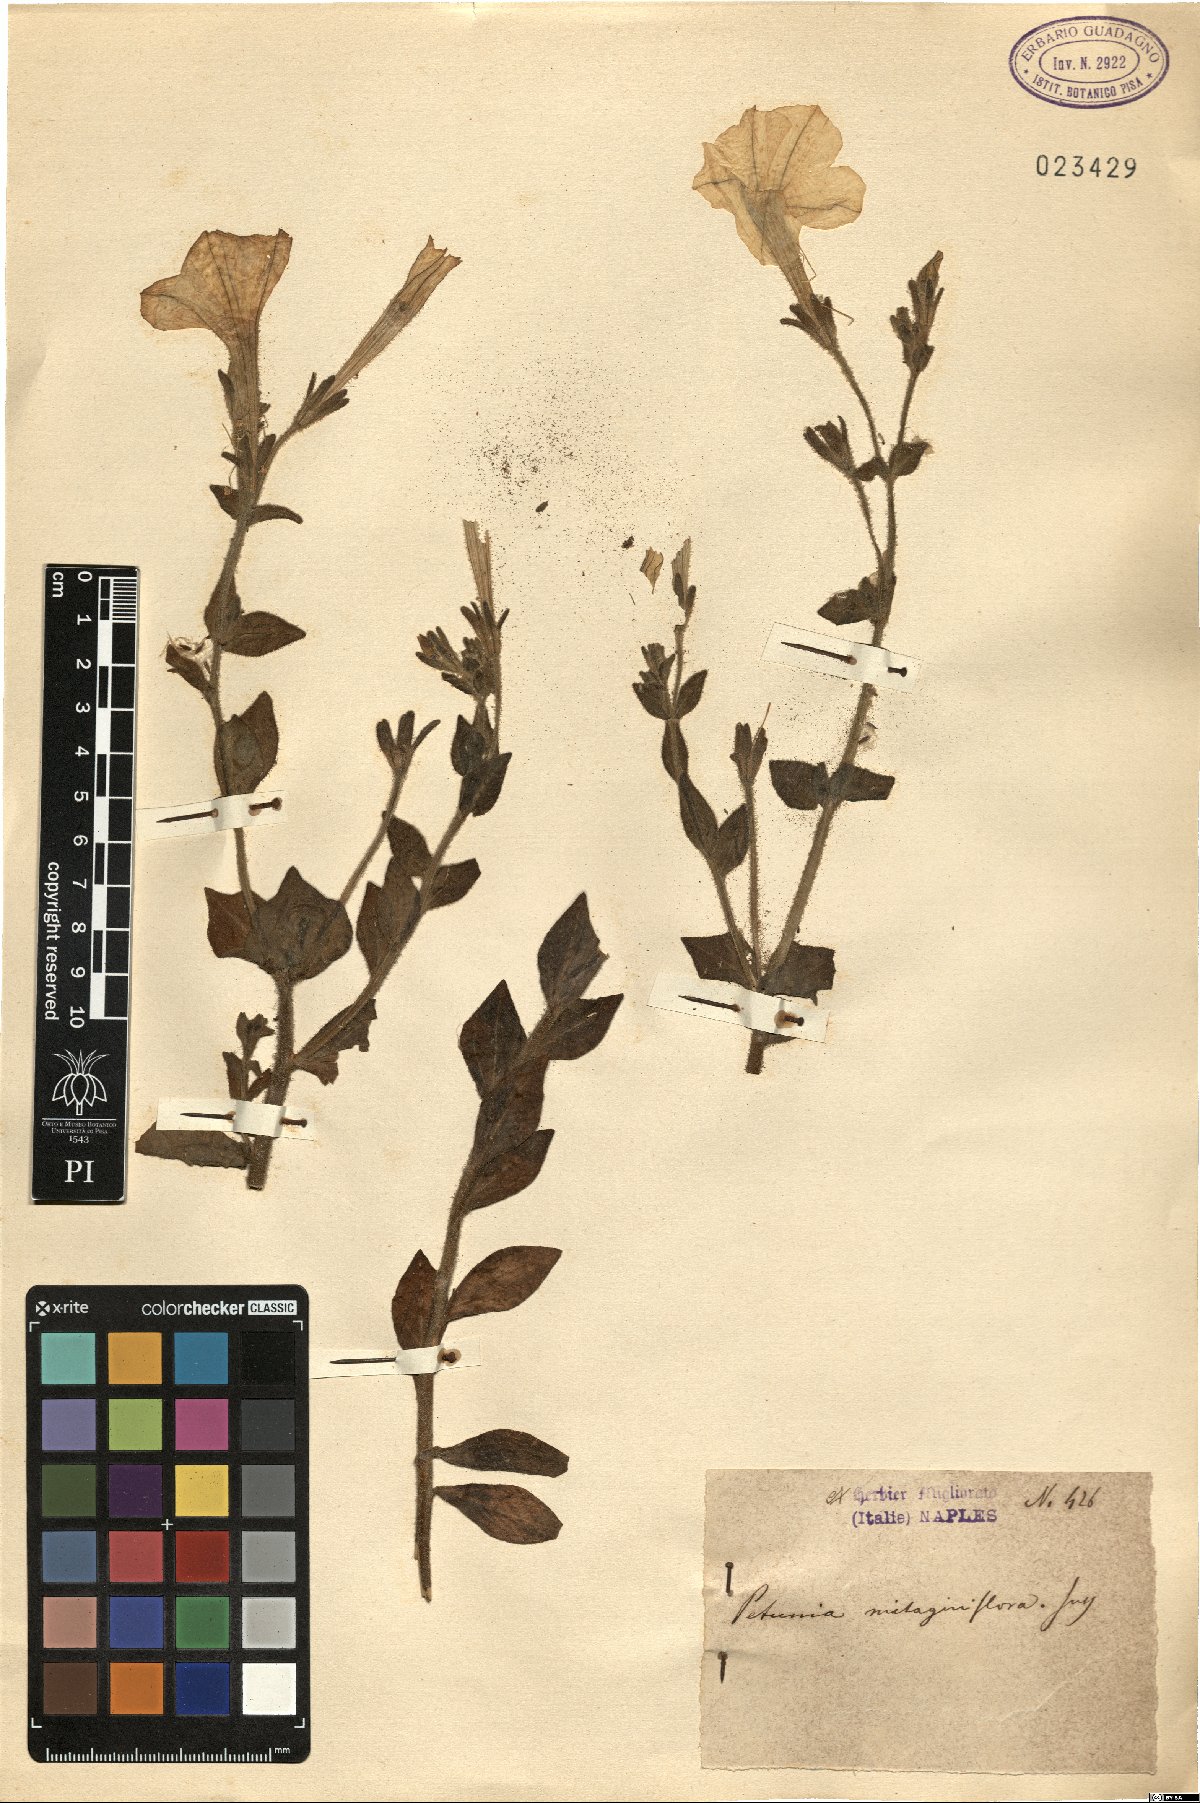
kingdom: Plantae
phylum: Tracheophyta
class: Magnoliopsida
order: Solanales
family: Solanaceae
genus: Petunia
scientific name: Petunia axillaris
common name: Large white petunia
